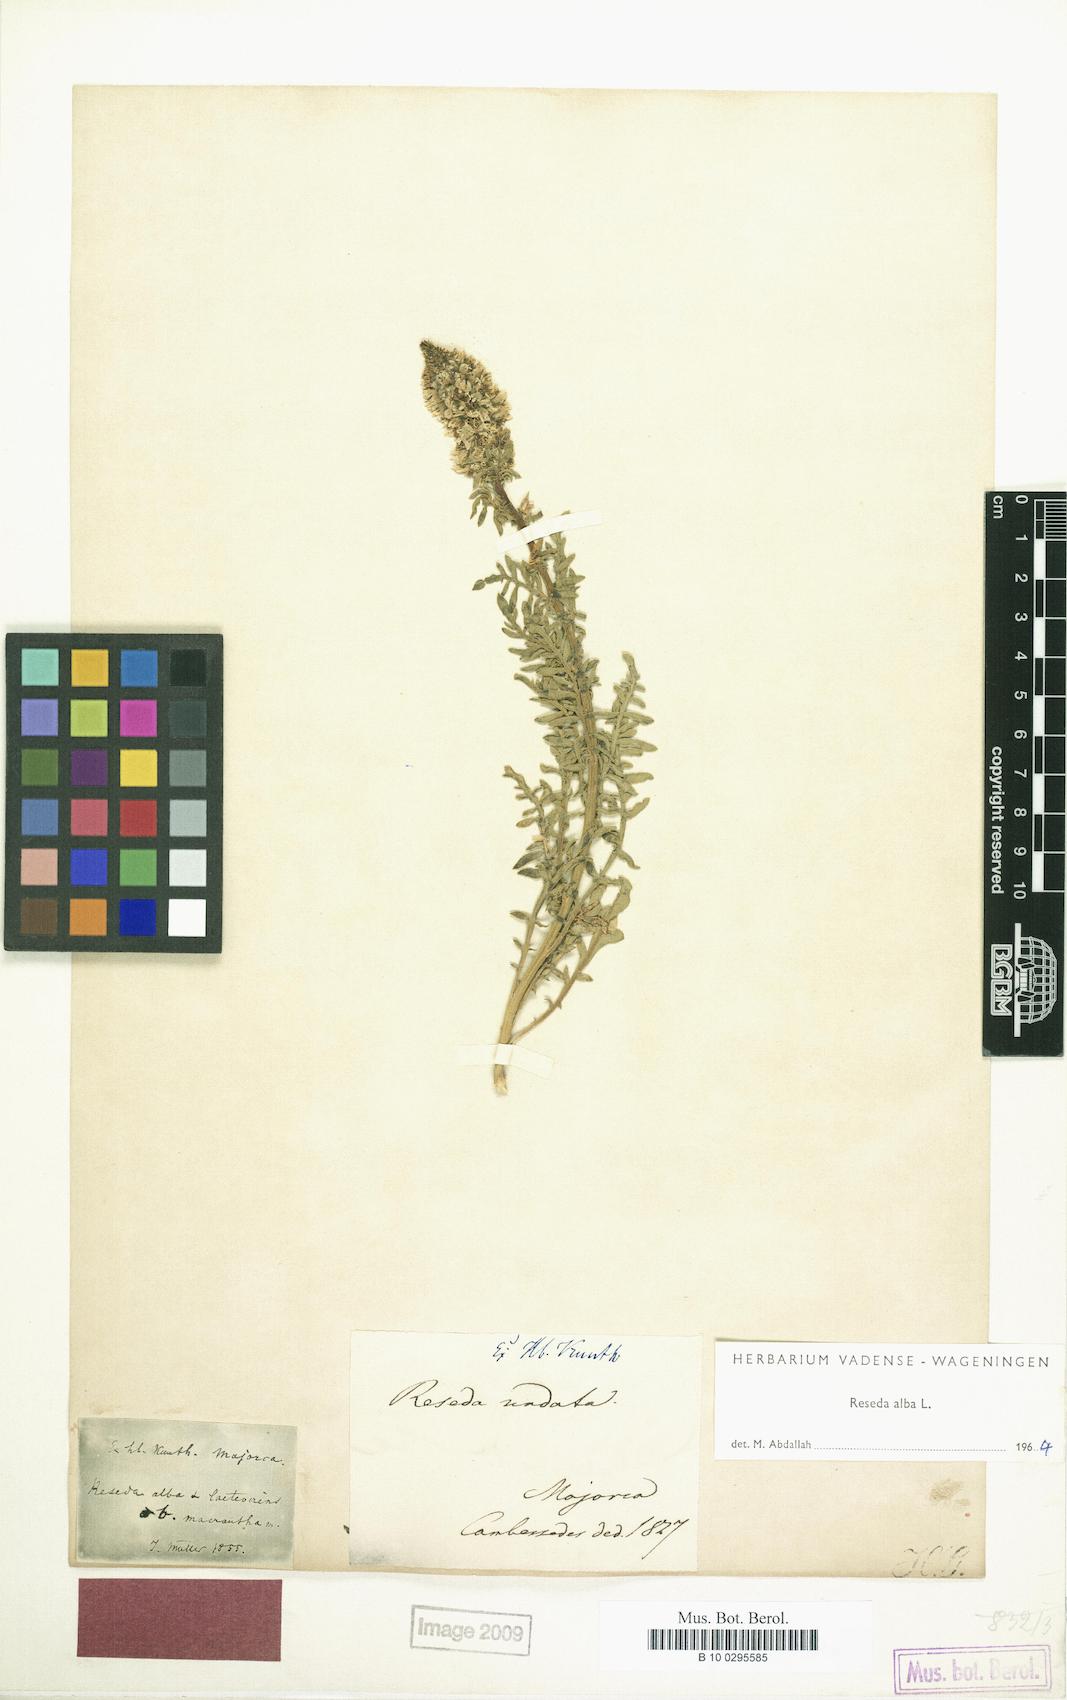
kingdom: Plantae
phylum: Tracheophyta
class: Magnoliopsida
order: Brassicales
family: Resedaceae
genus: Reseda
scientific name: Reseda alba
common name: White mignonette
